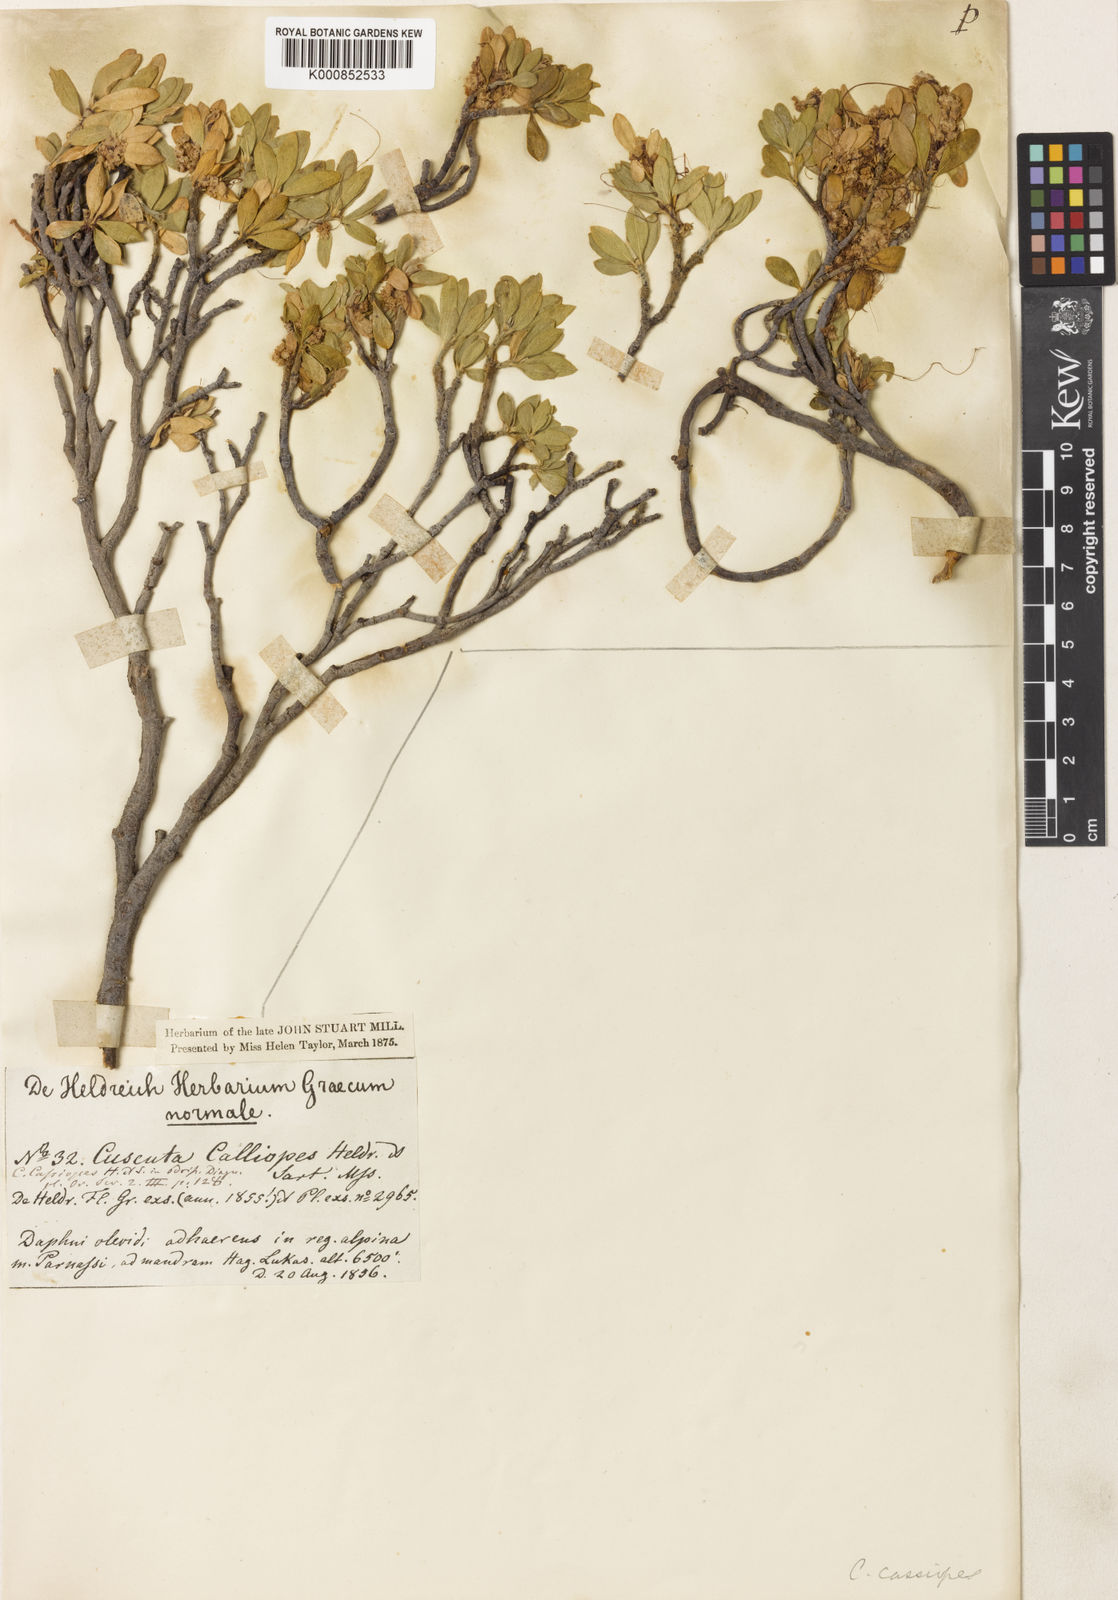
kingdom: Plantae
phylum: Tracheophyta
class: Magnoliopsida
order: Solanales
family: Convolvulaceae
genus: Cuscuta
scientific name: Cuscuta epithymum
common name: Clover dodder
